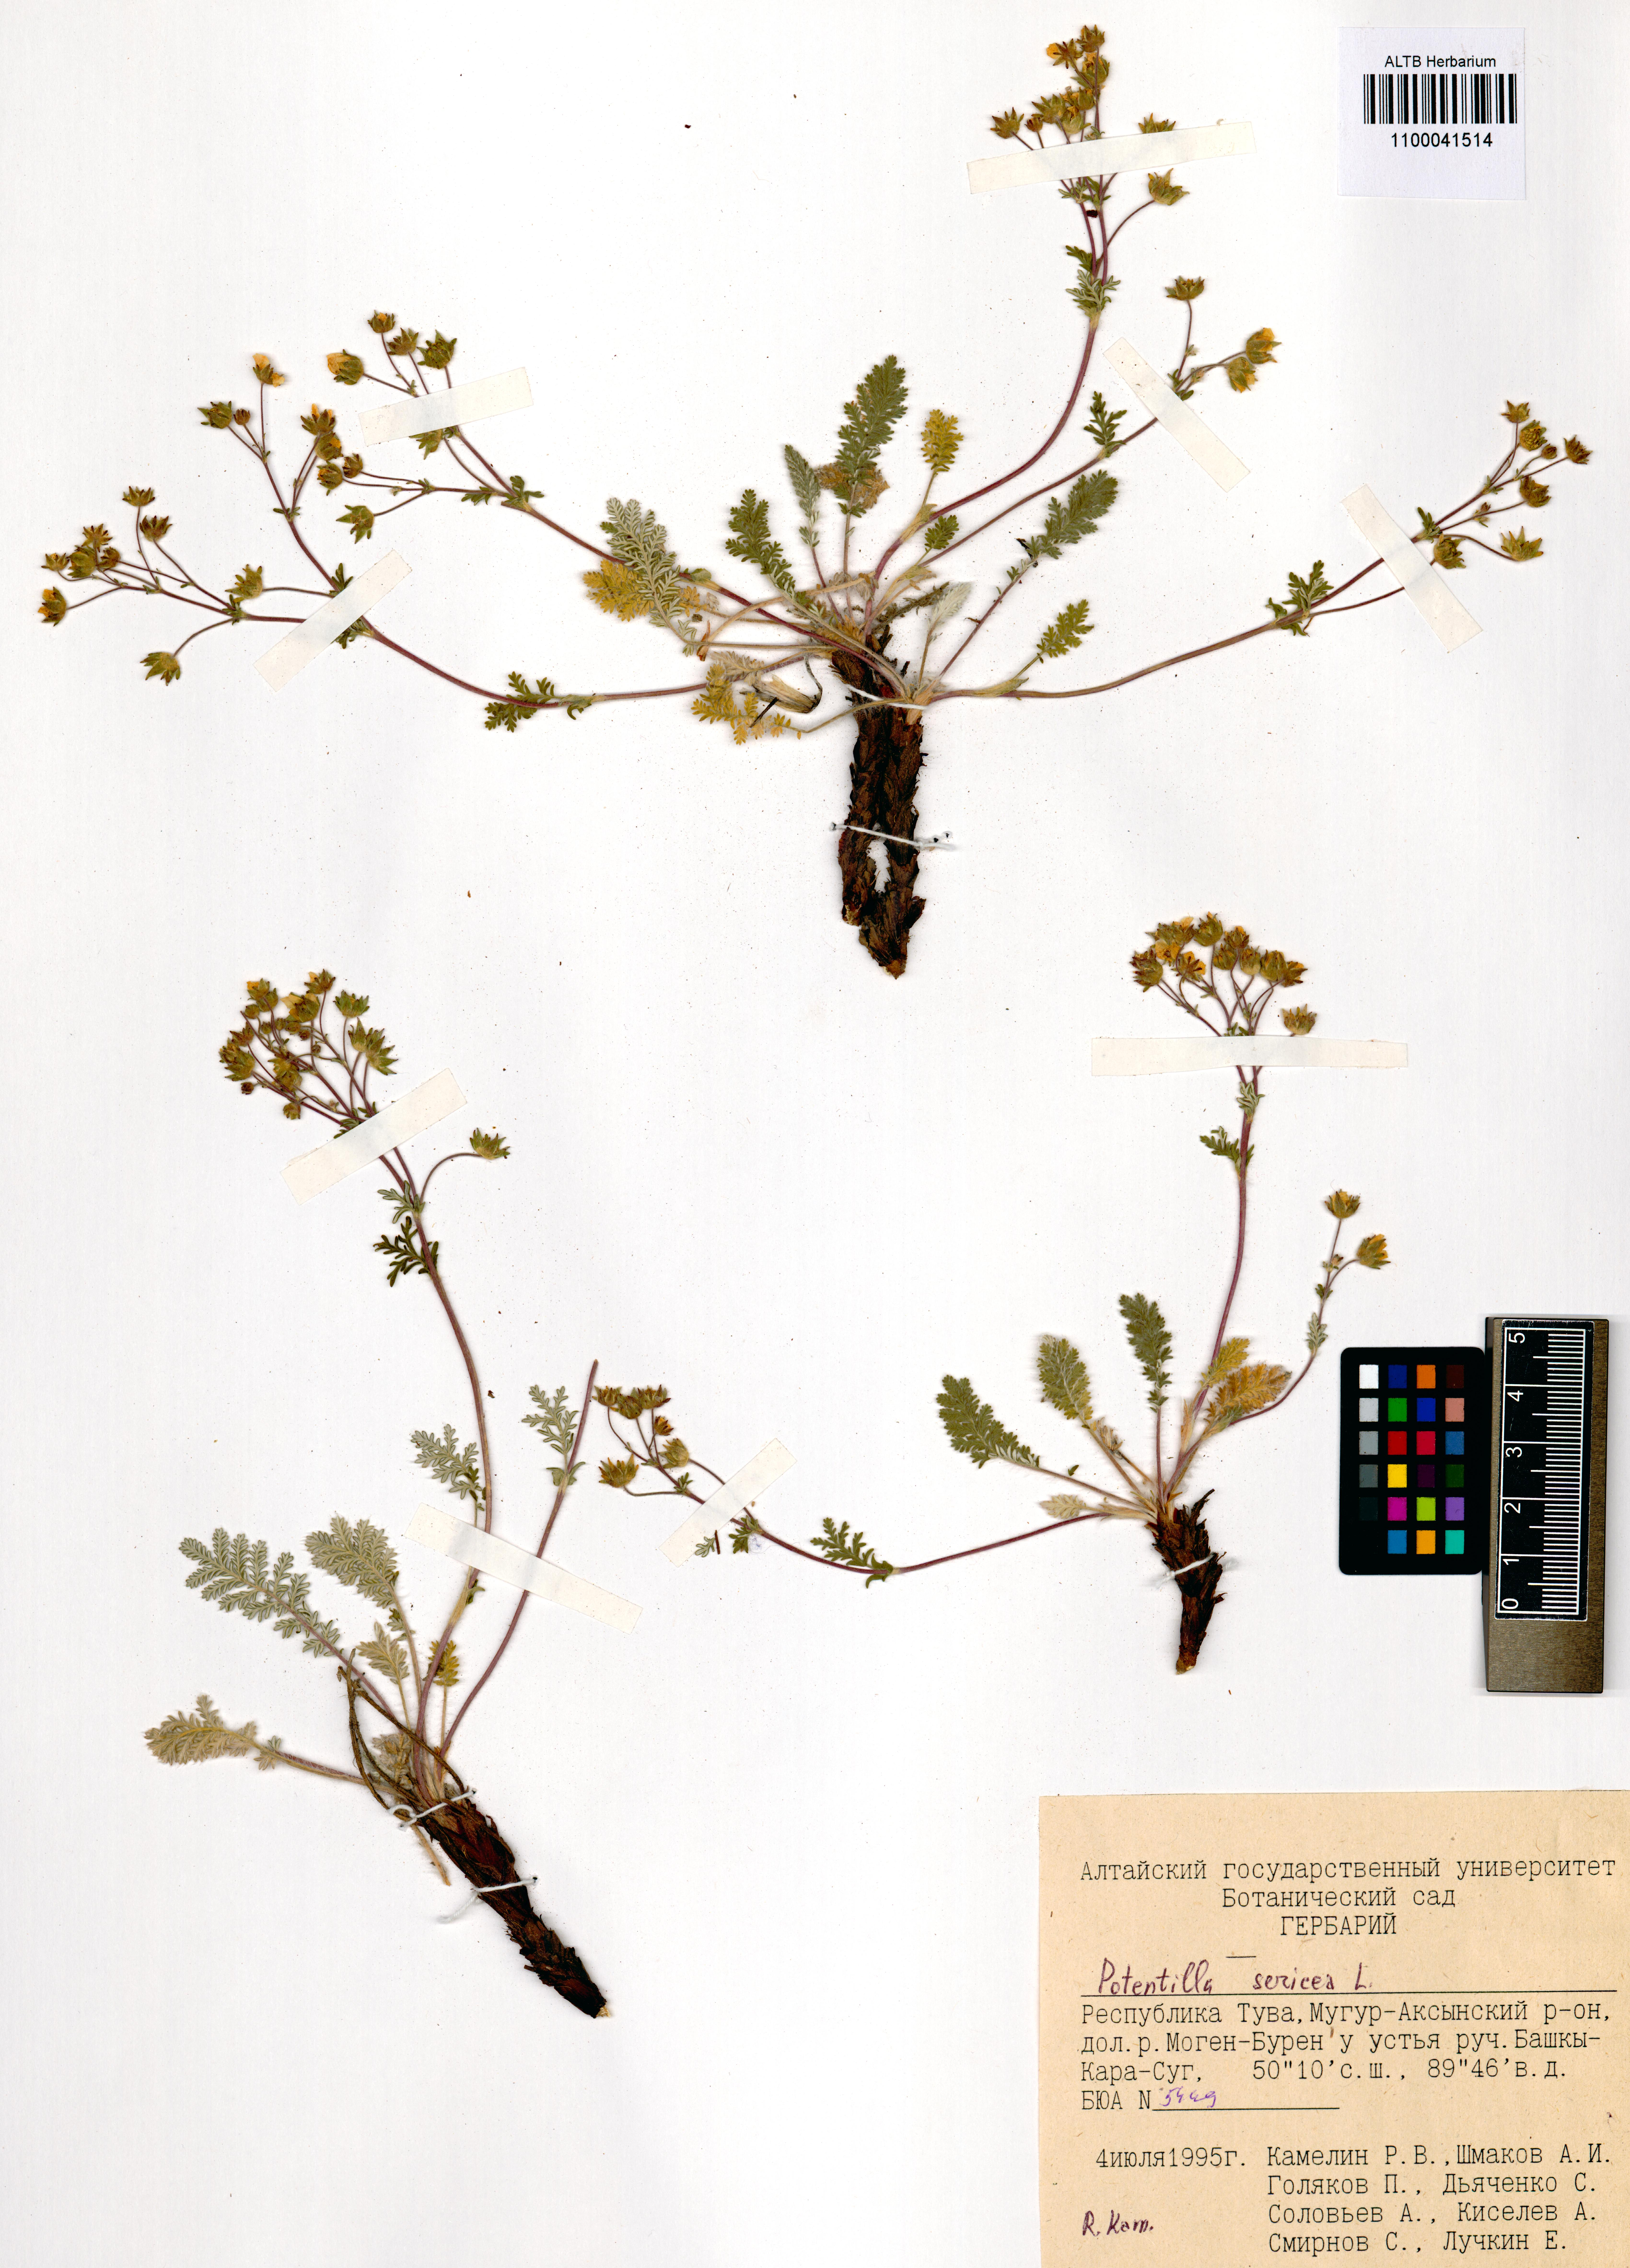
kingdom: Plantae
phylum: Tracheophyta
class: Magnoliopsida
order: Rosales
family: Rosaceae
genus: Potentilla
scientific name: Potentilla sericea
